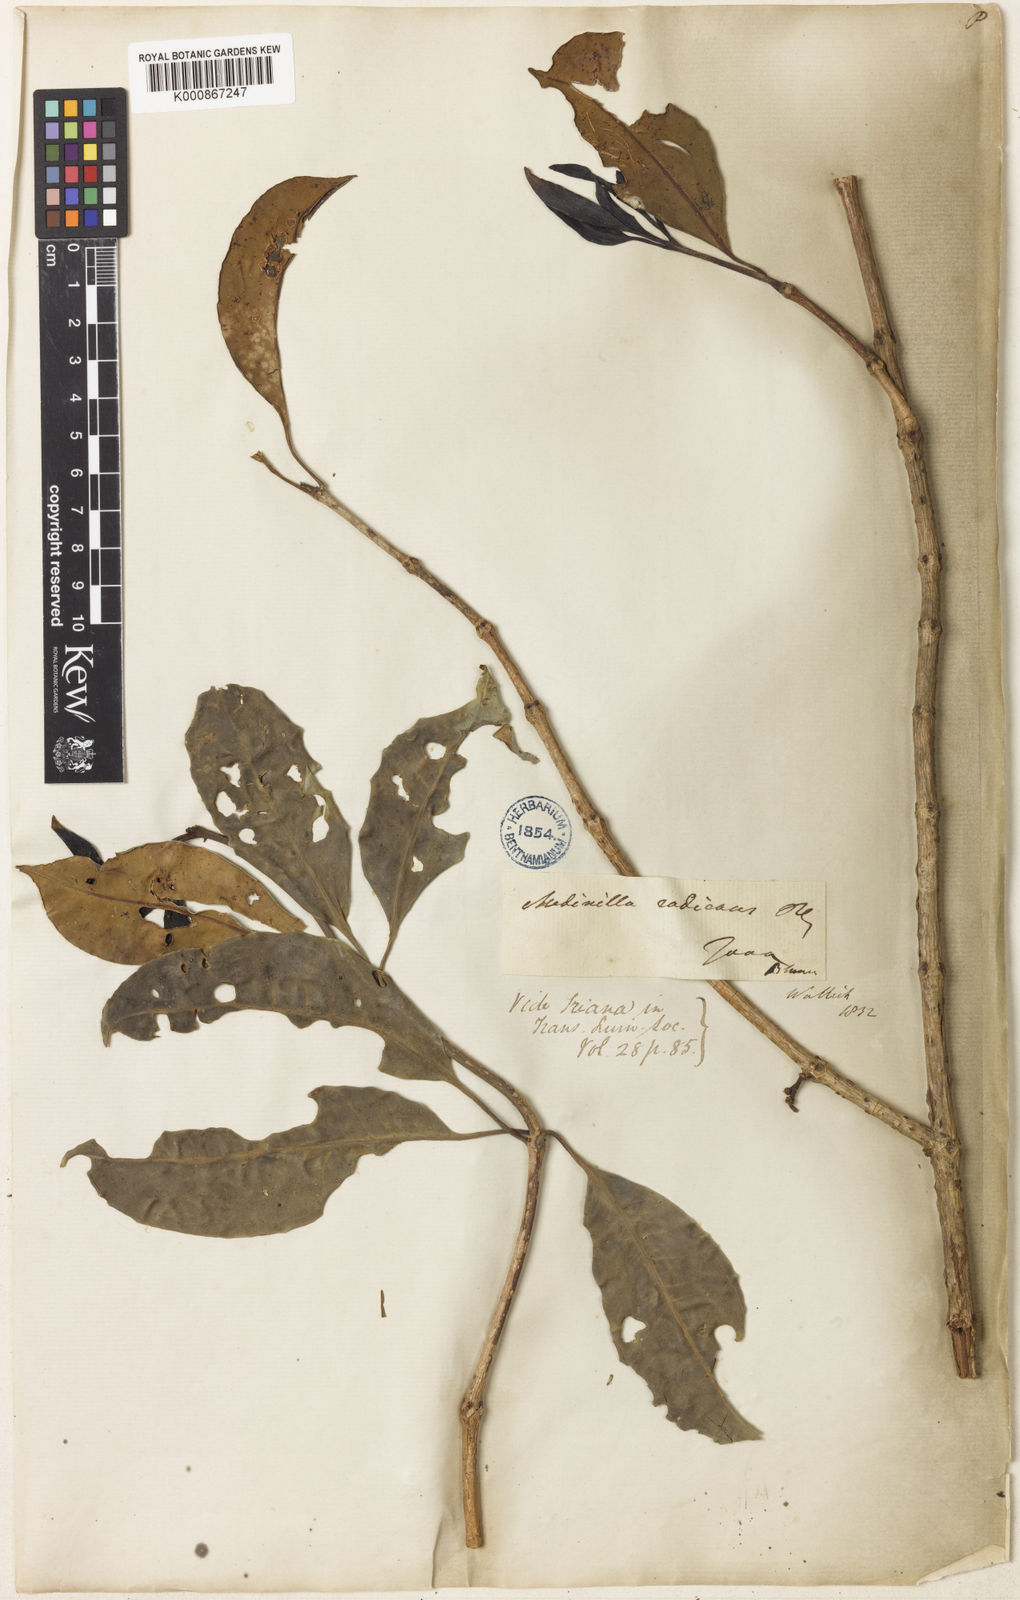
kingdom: Plantae
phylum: Tracheophyta
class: Magnoliopsida
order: Myrtales
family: Melastomataceae
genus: Medinilla
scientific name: Medinilla radicans
